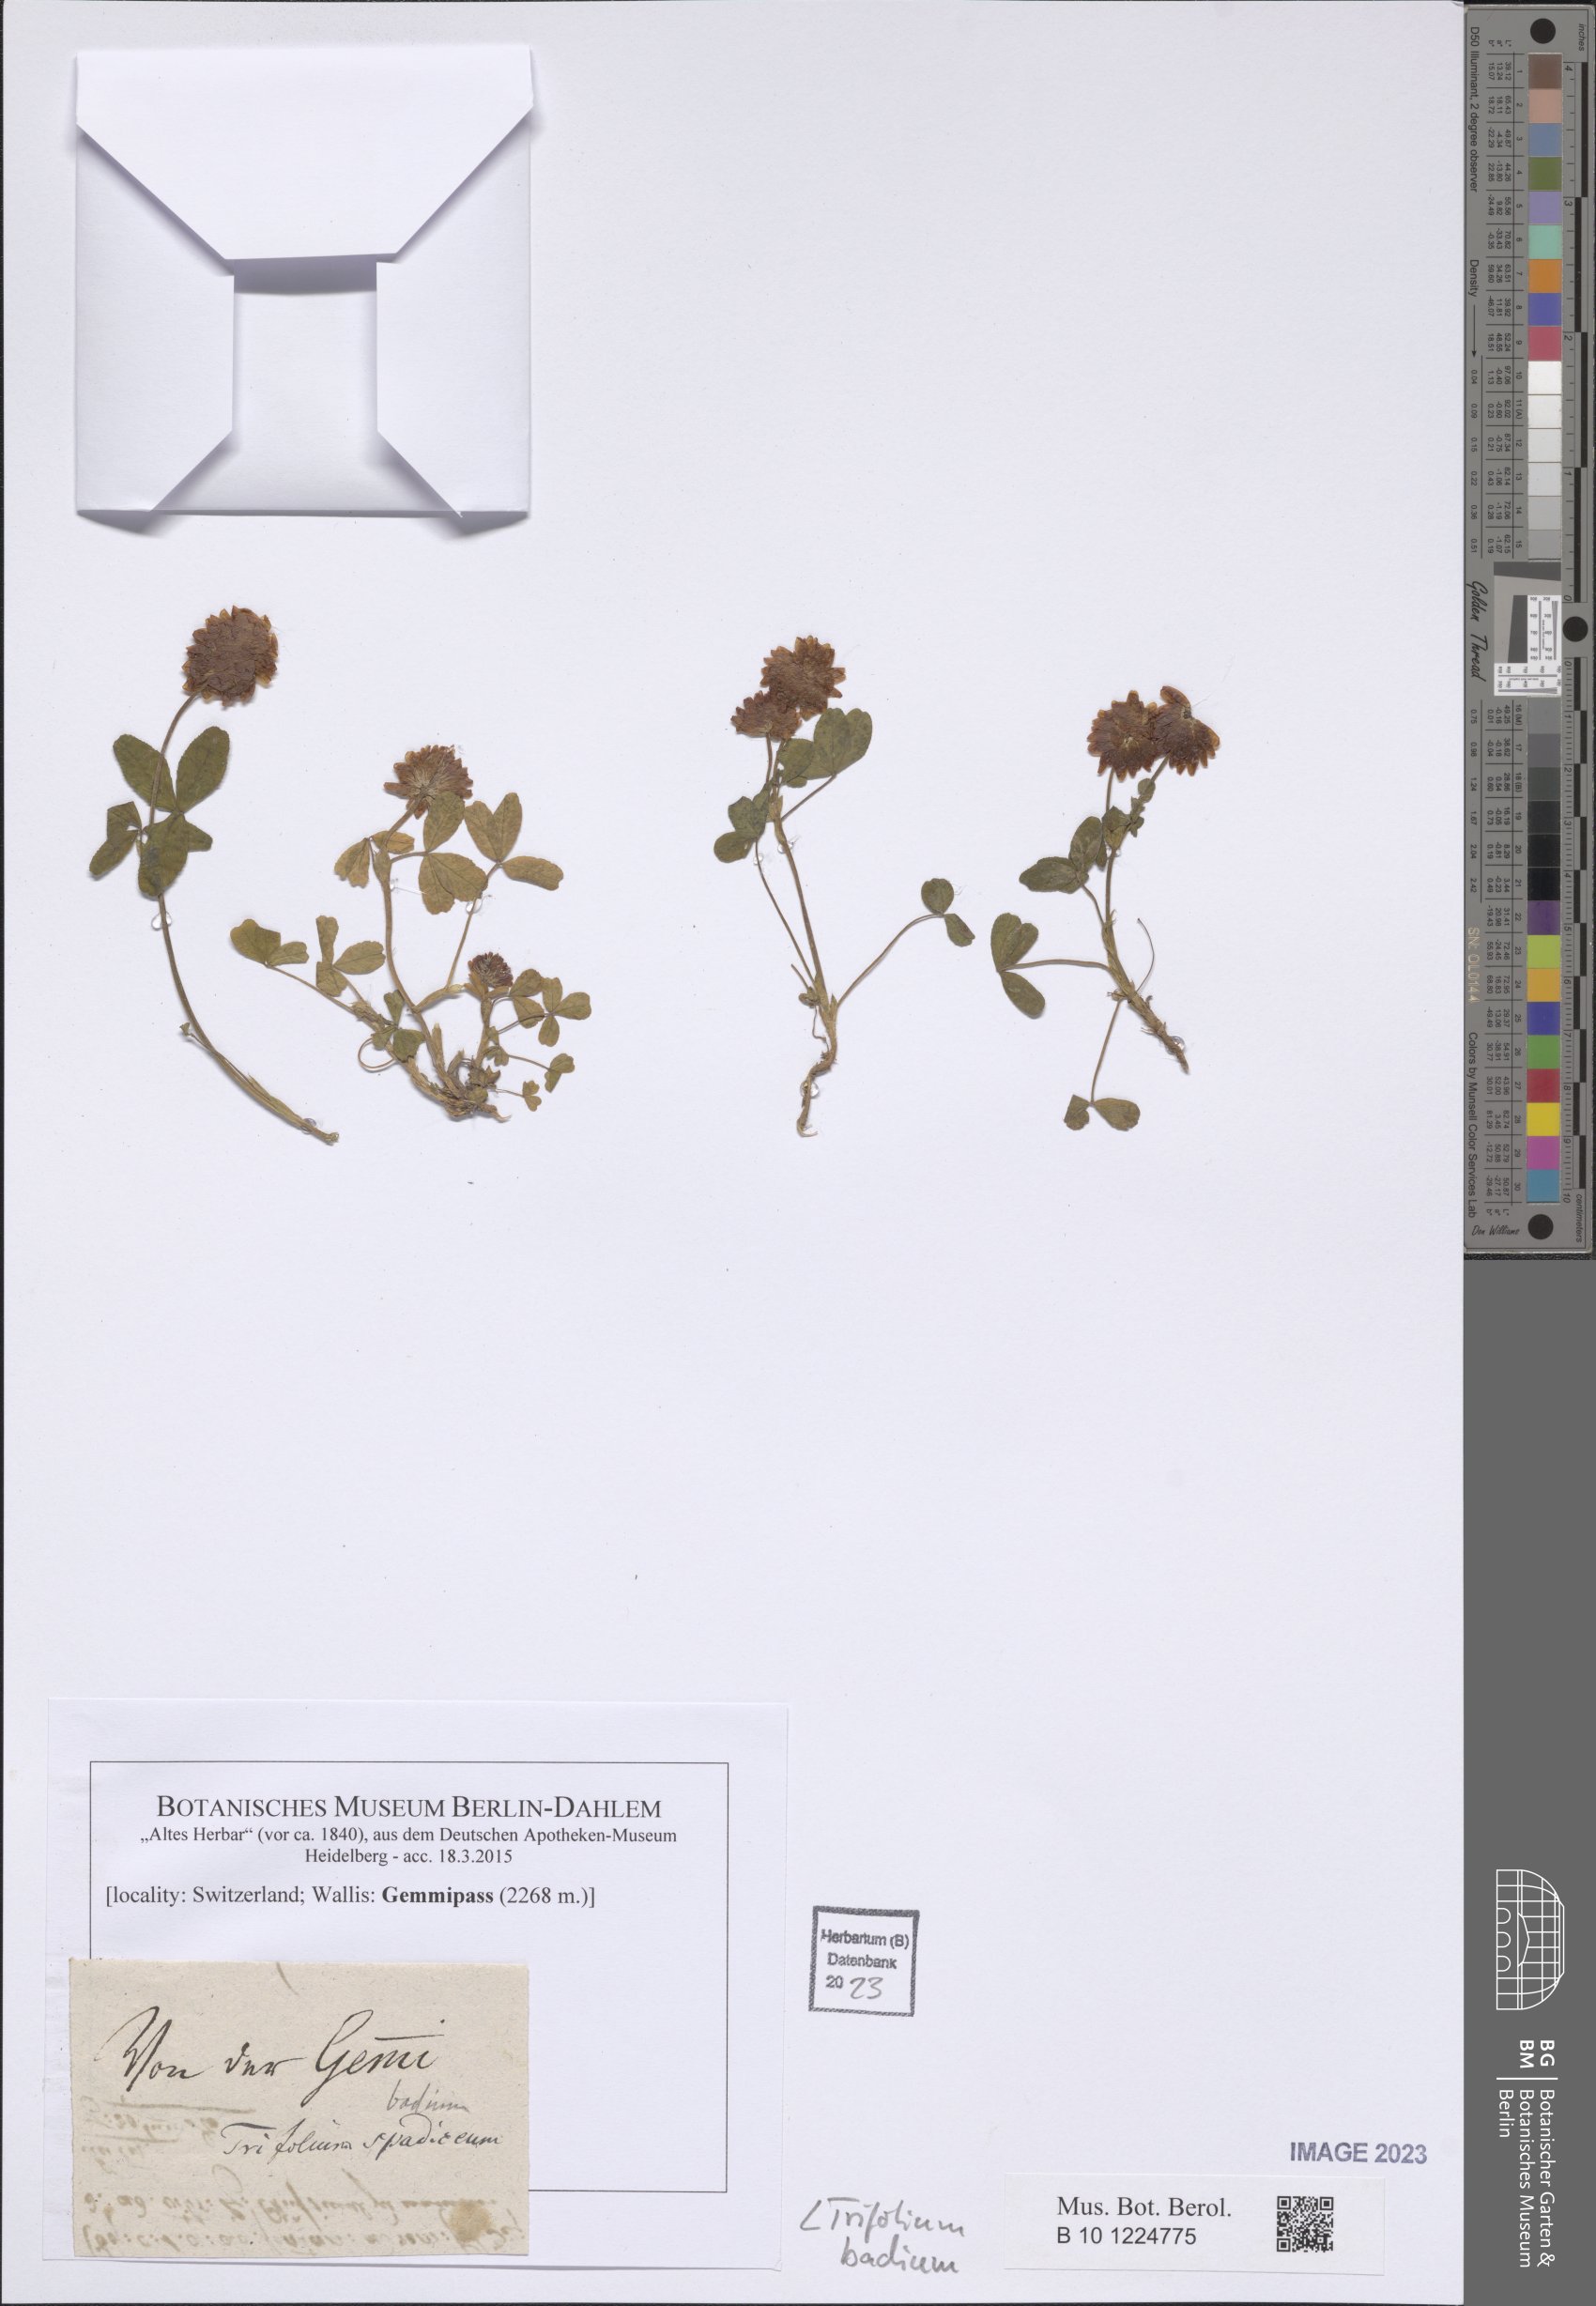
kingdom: Plantae
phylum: Tracheophyta
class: Magnoliopsida
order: Fabales
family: Fabaceae
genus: Trifolium
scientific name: Trifolium badium
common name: Brown clover
